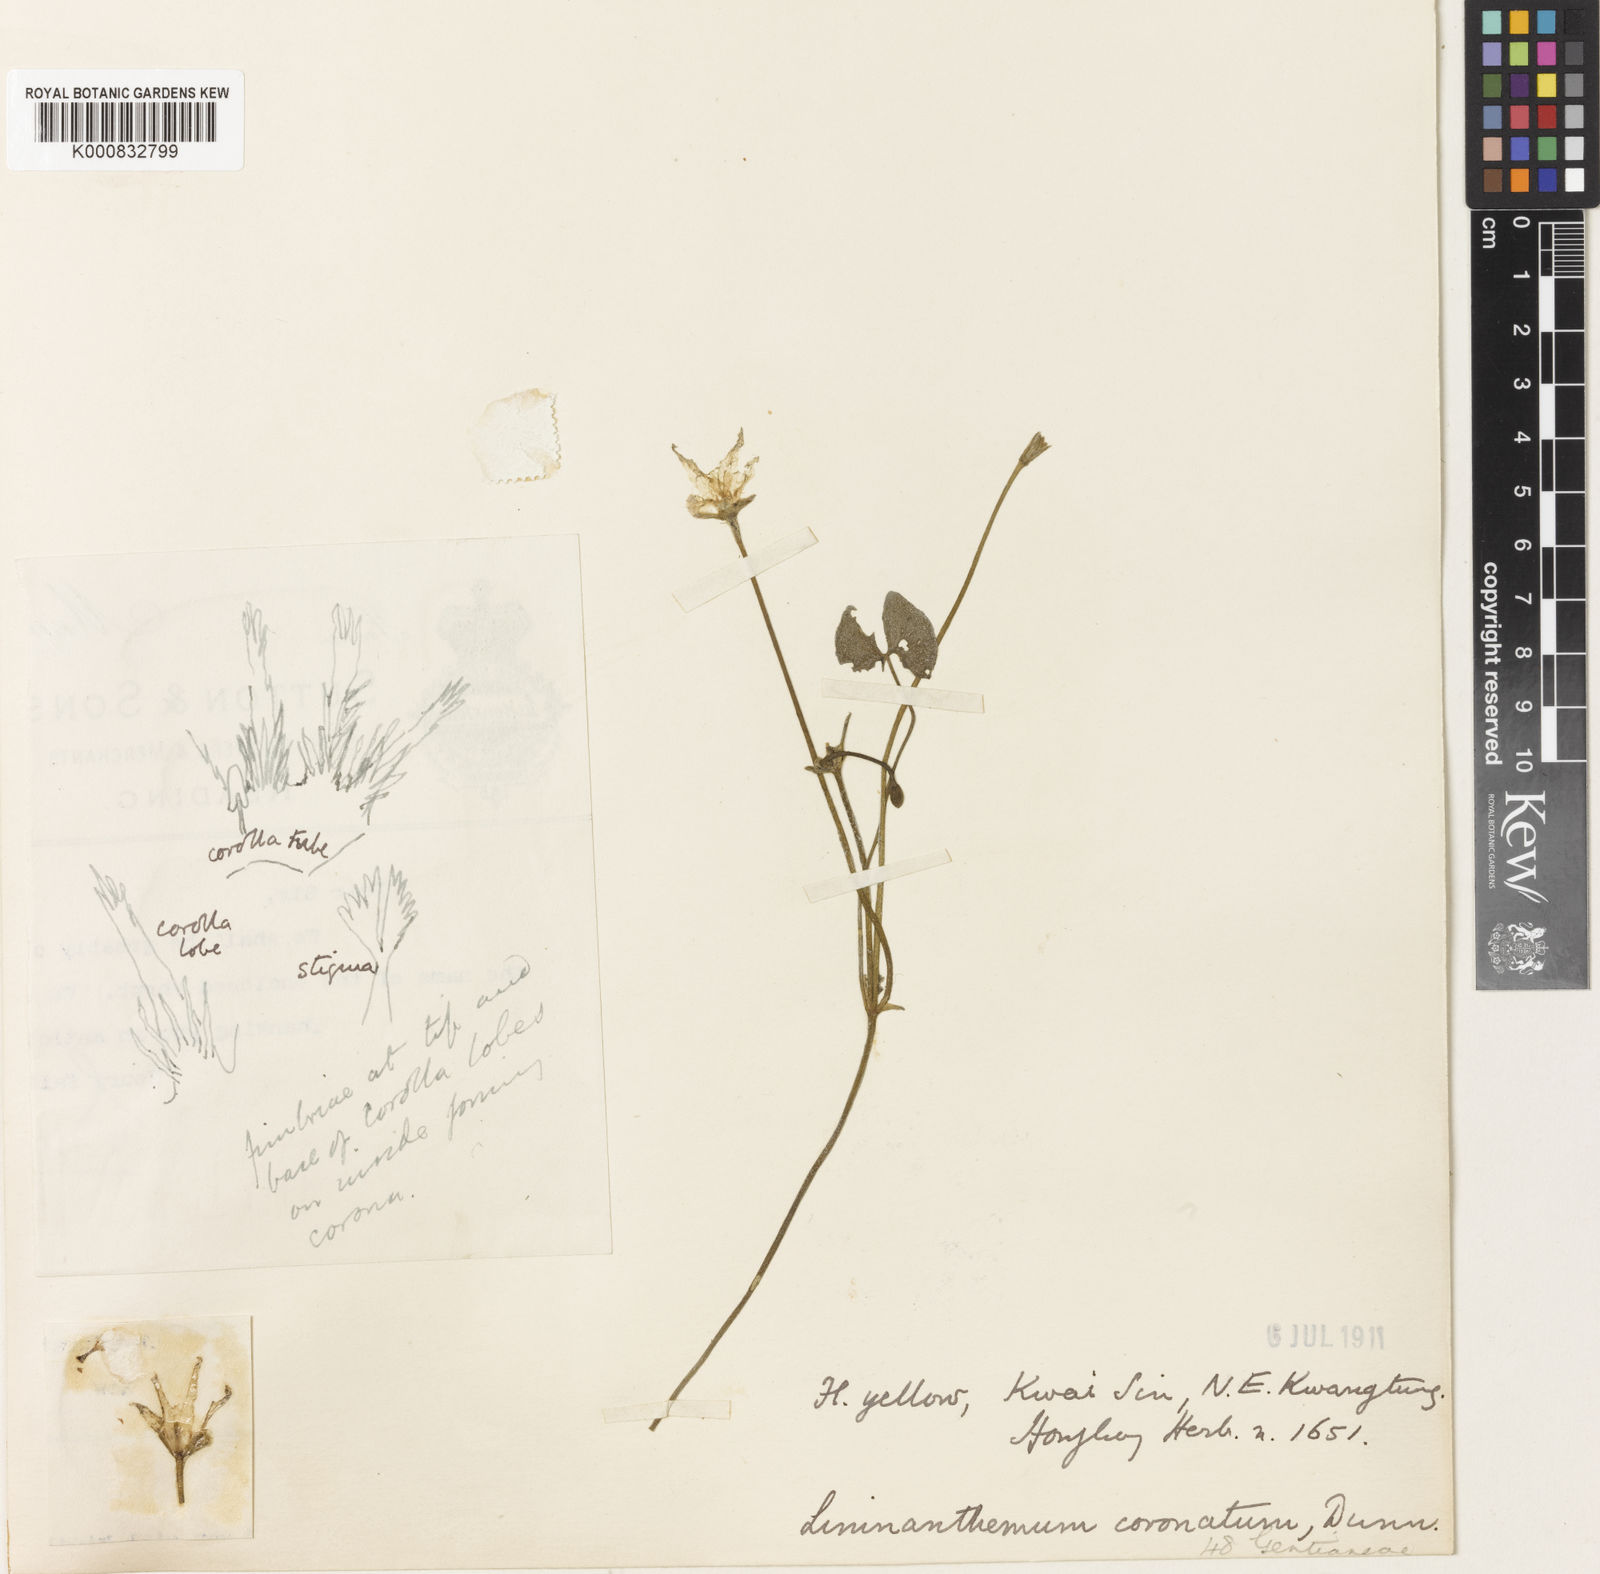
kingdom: Plantae
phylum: Tracheophyta
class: Magnoliopsida
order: Asterales
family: Menyanthaceae
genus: Nymphoides
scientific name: Nymphoides
